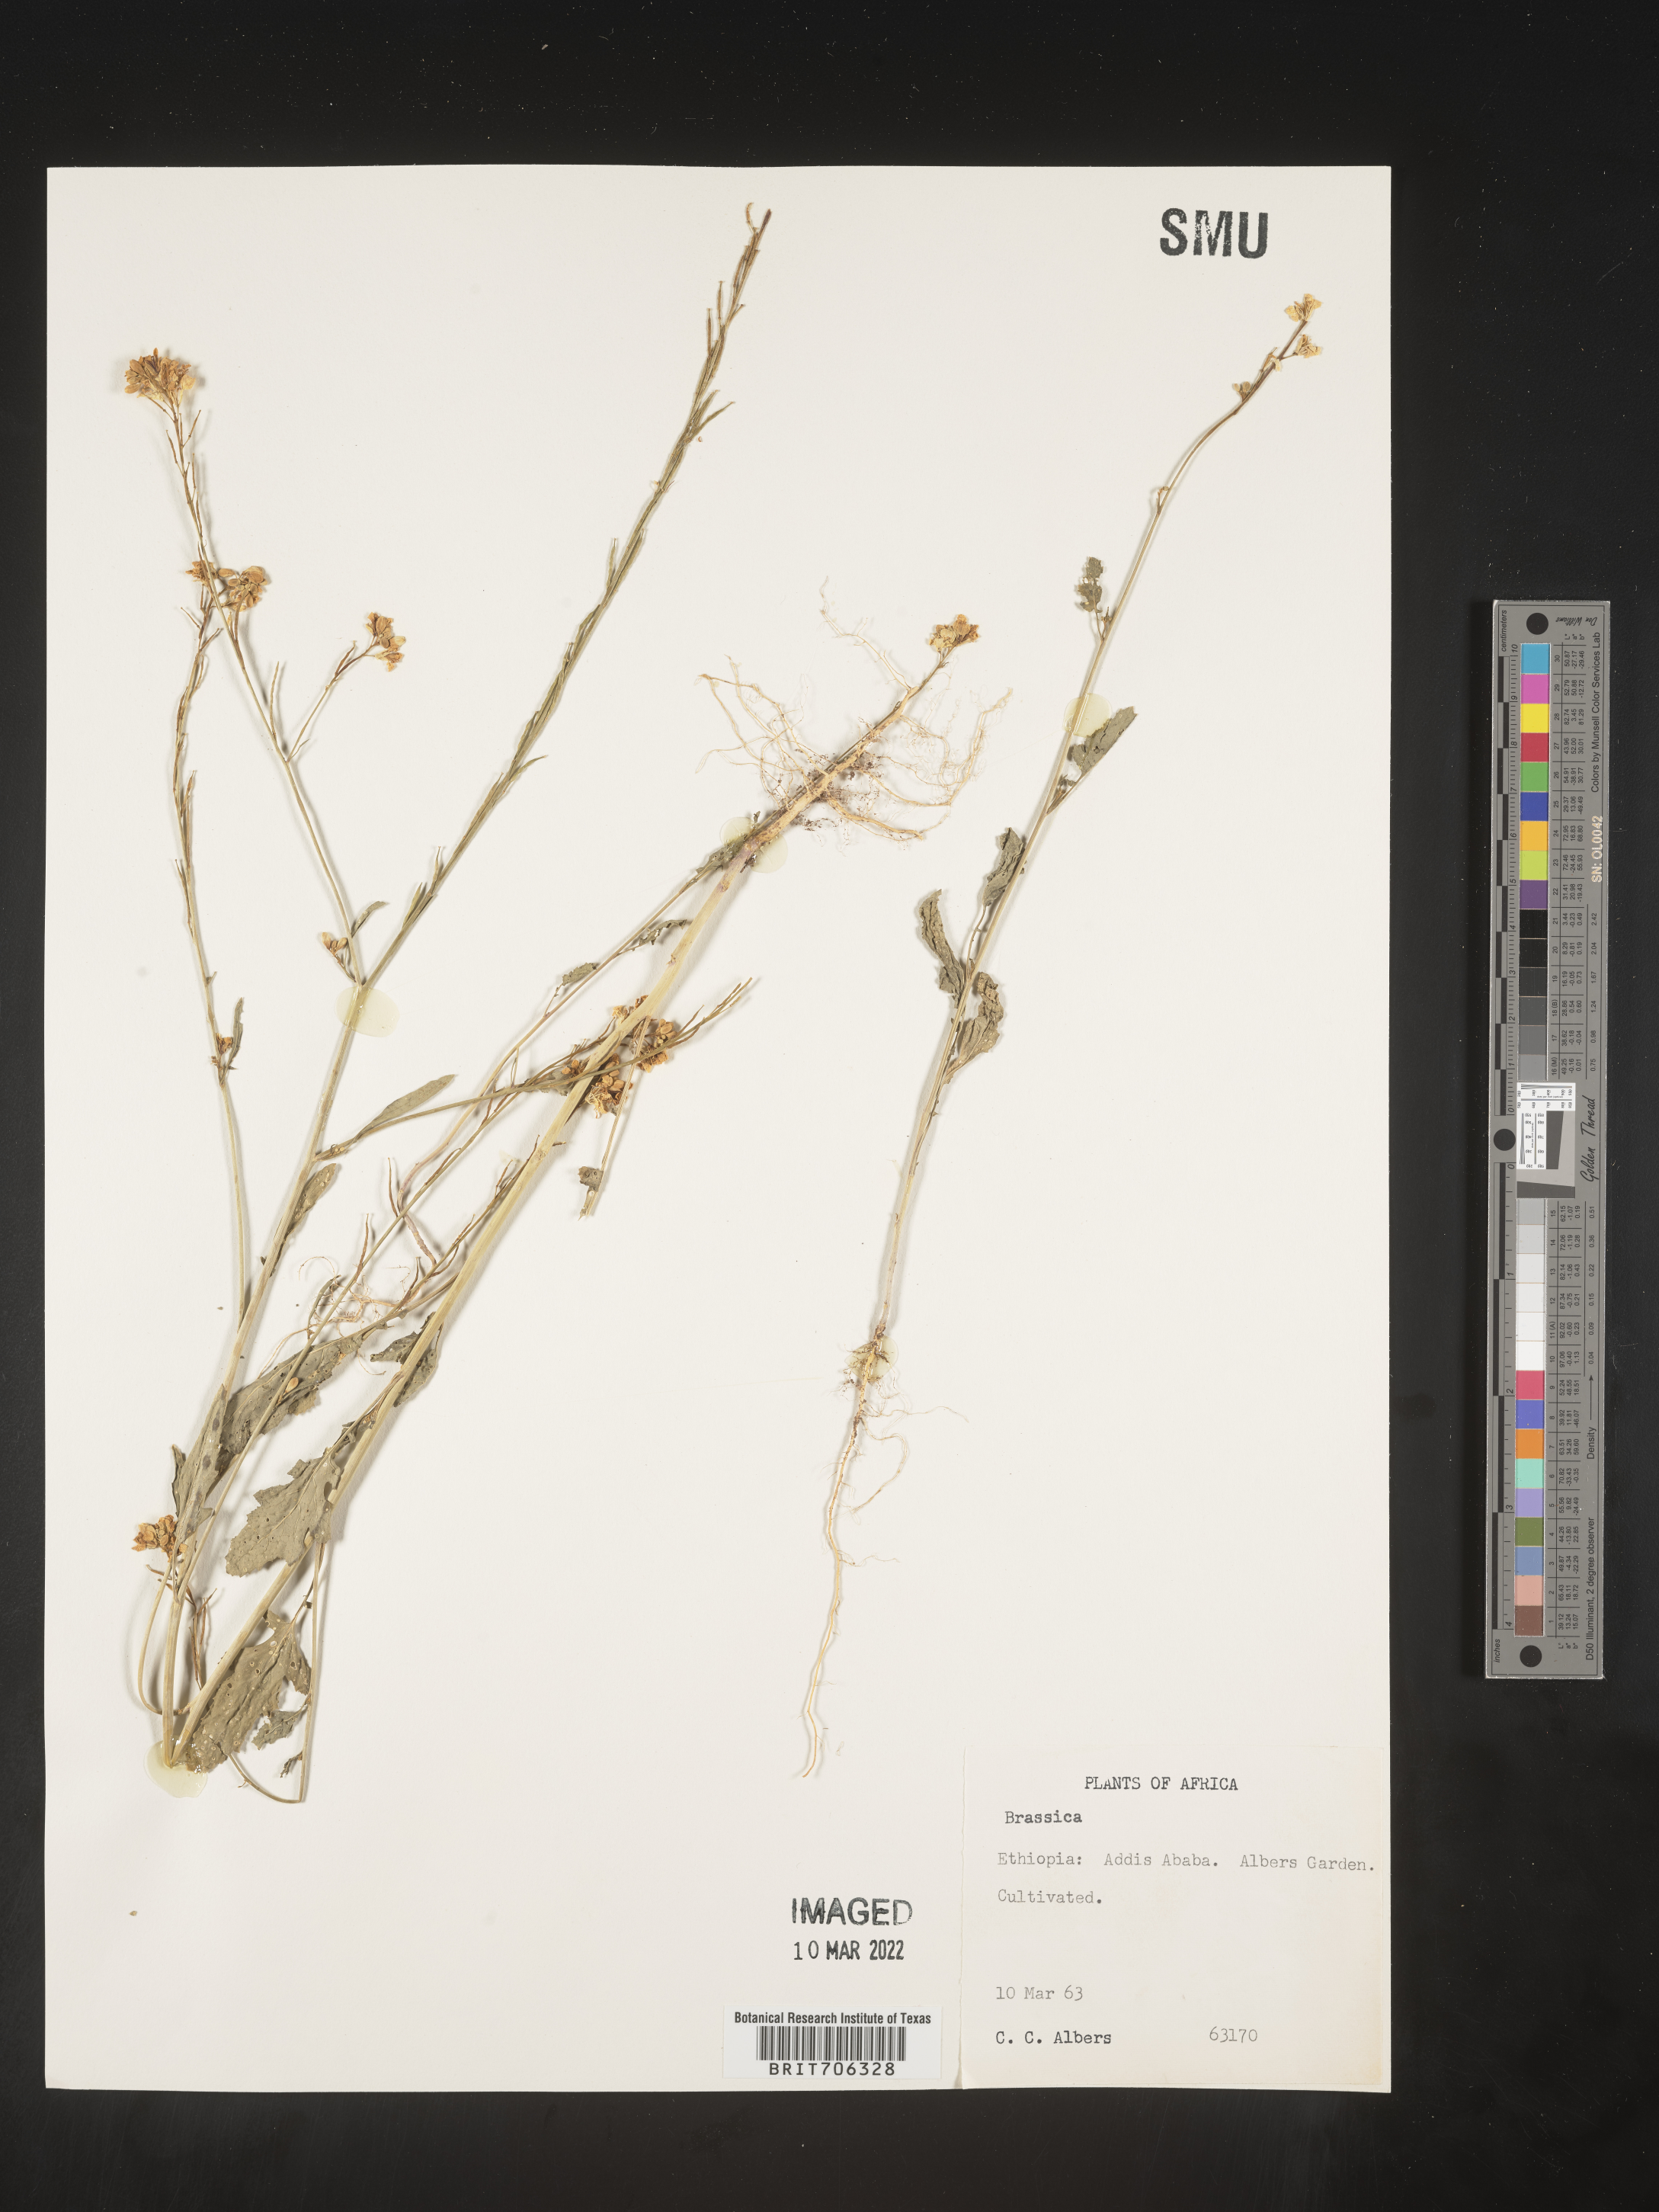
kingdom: Plantae
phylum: Tracheophyta
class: Magnoliopsida
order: Brassicales
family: Brassicaceae
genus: Brassica
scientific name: Brassica
